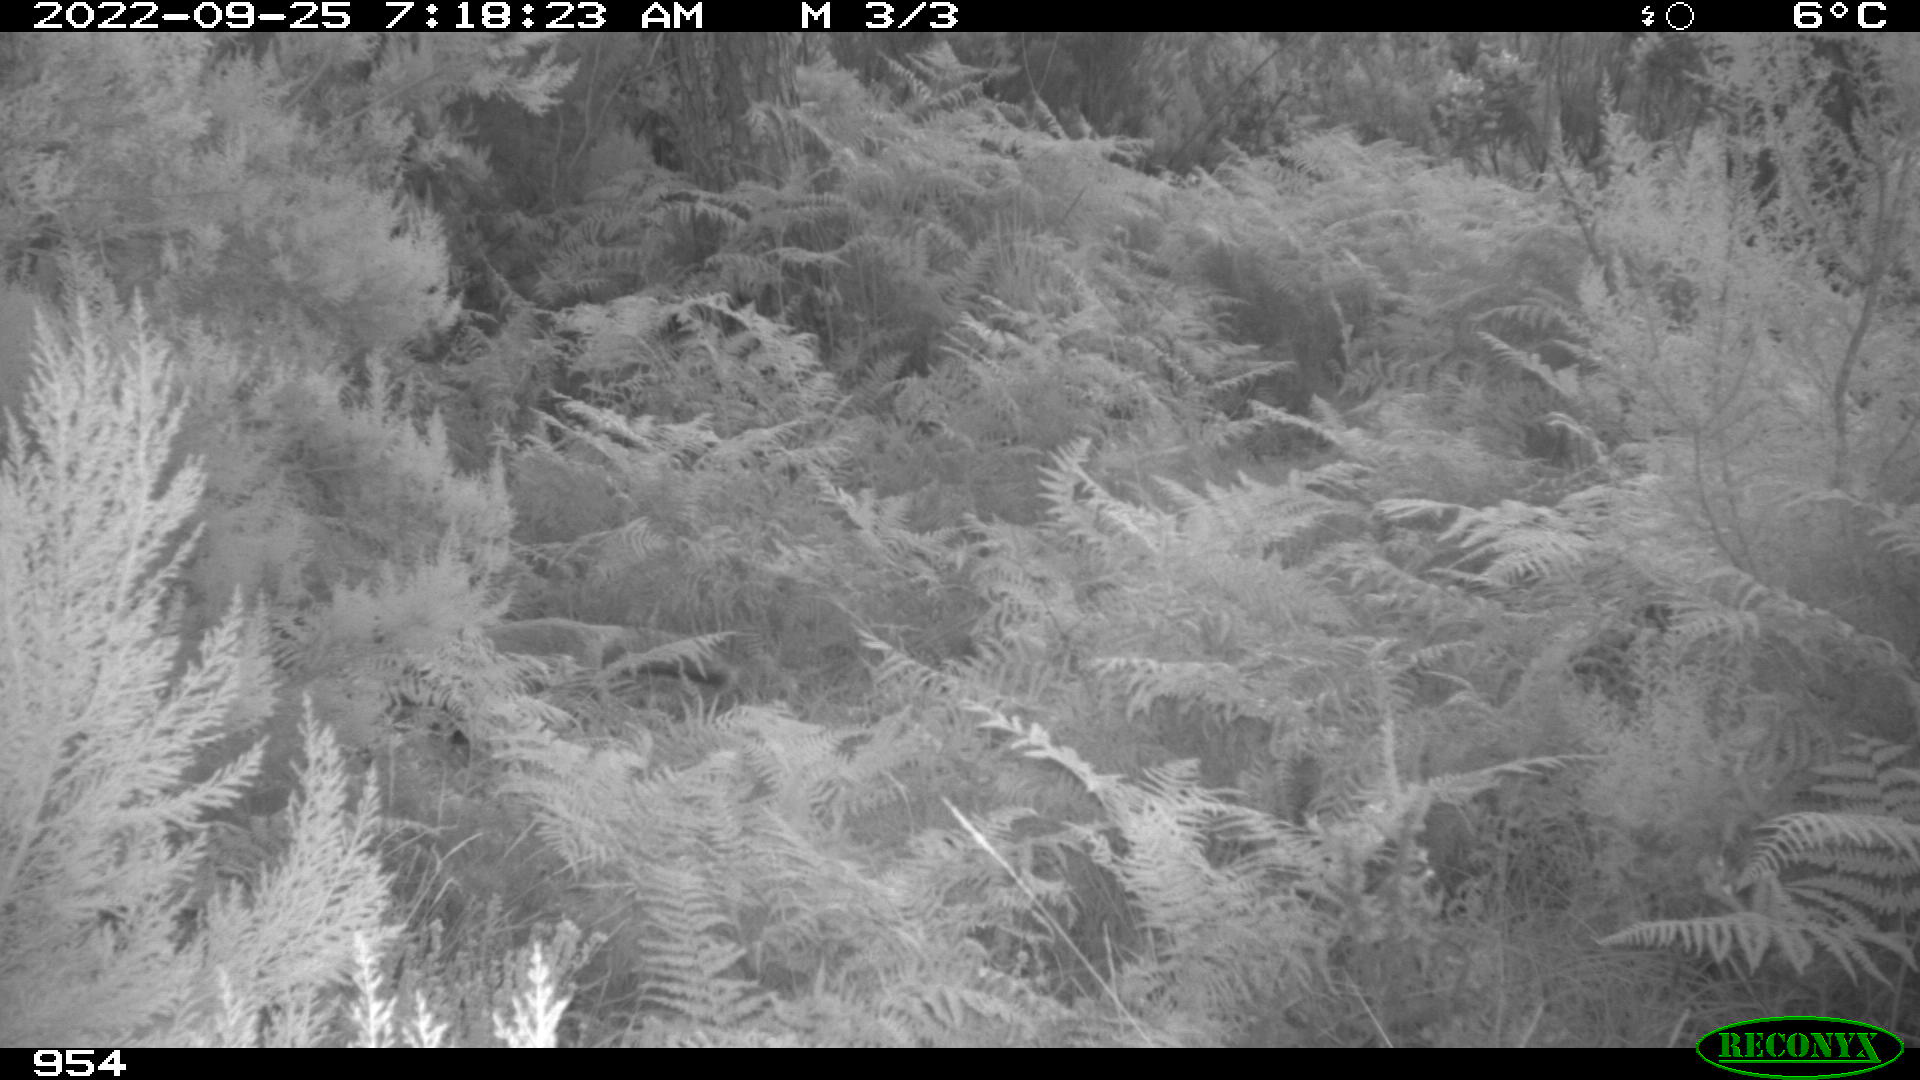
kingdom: Animalia
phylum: Chordata
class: Mammalia
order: Carnivora
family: Canidae
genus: Vulpes
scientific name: Vulpes vulpes
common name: Red fox
